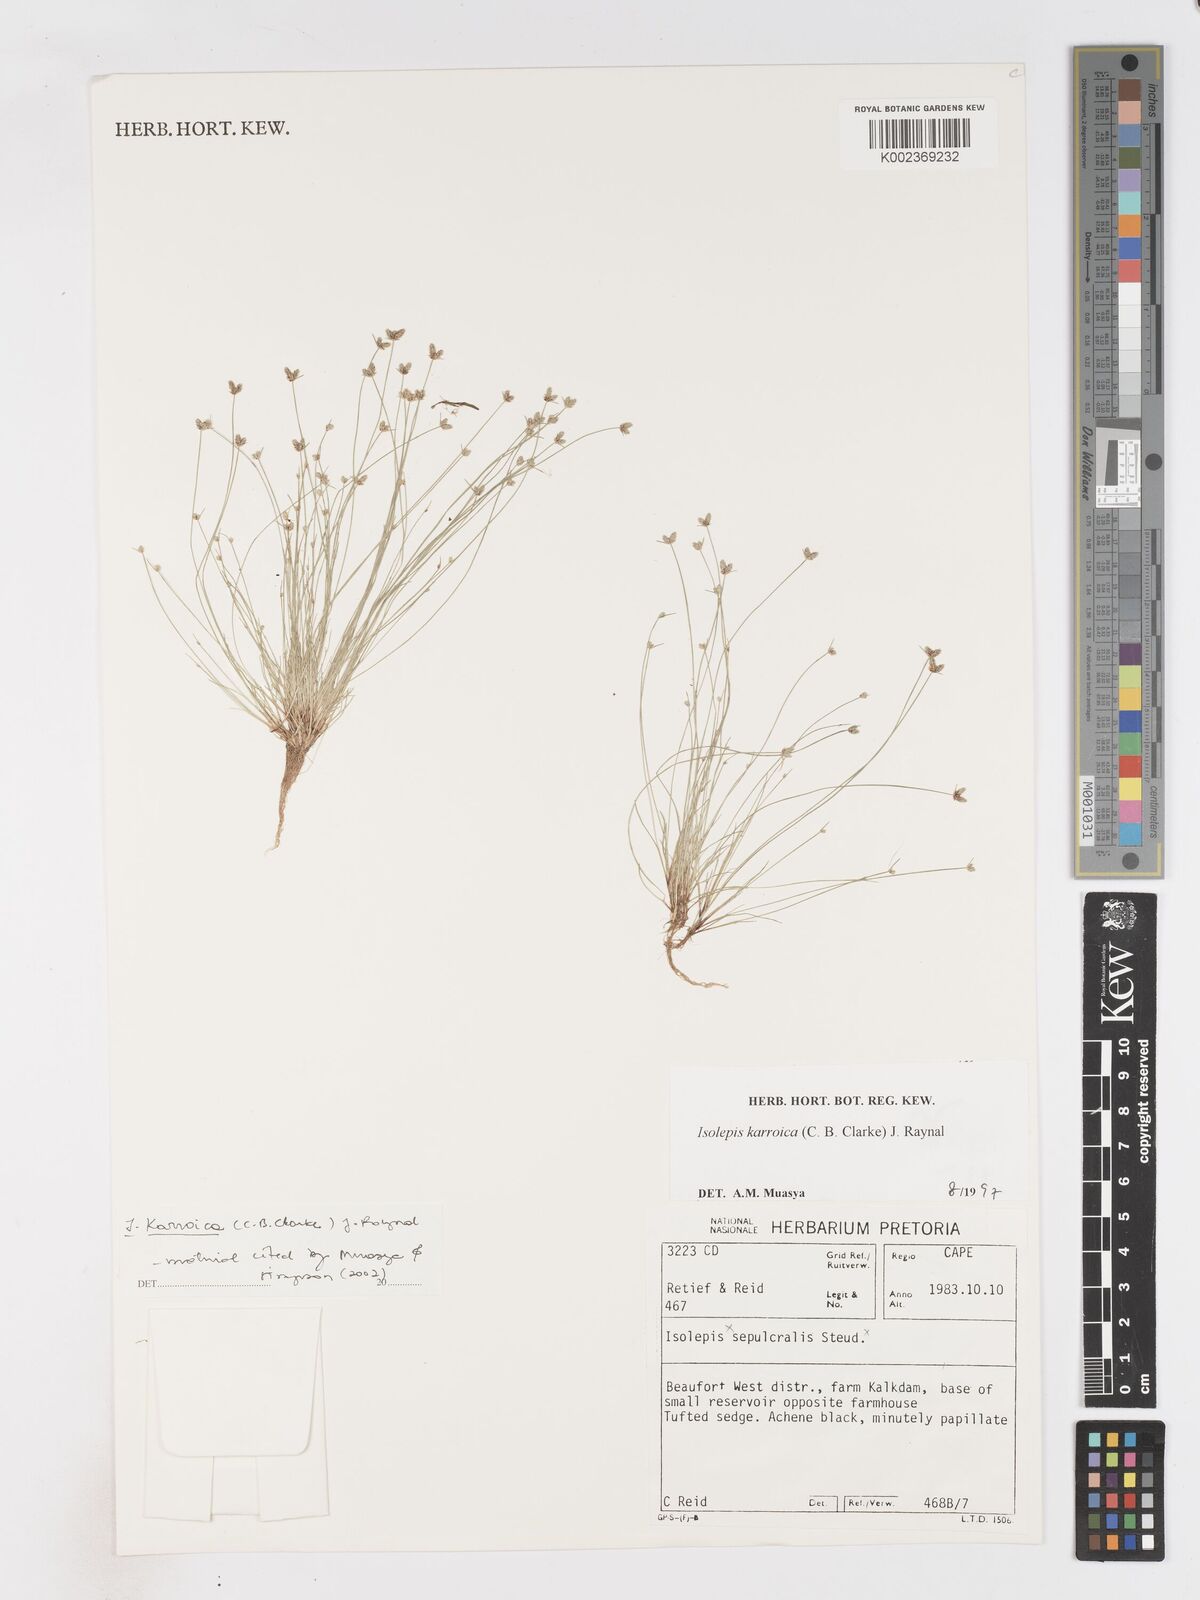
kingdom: Plantae
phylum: Tracheophyta
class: Liliopsida
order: Poales
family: Cyperaceae
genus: Isolepis
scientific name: Isolepis karroica
